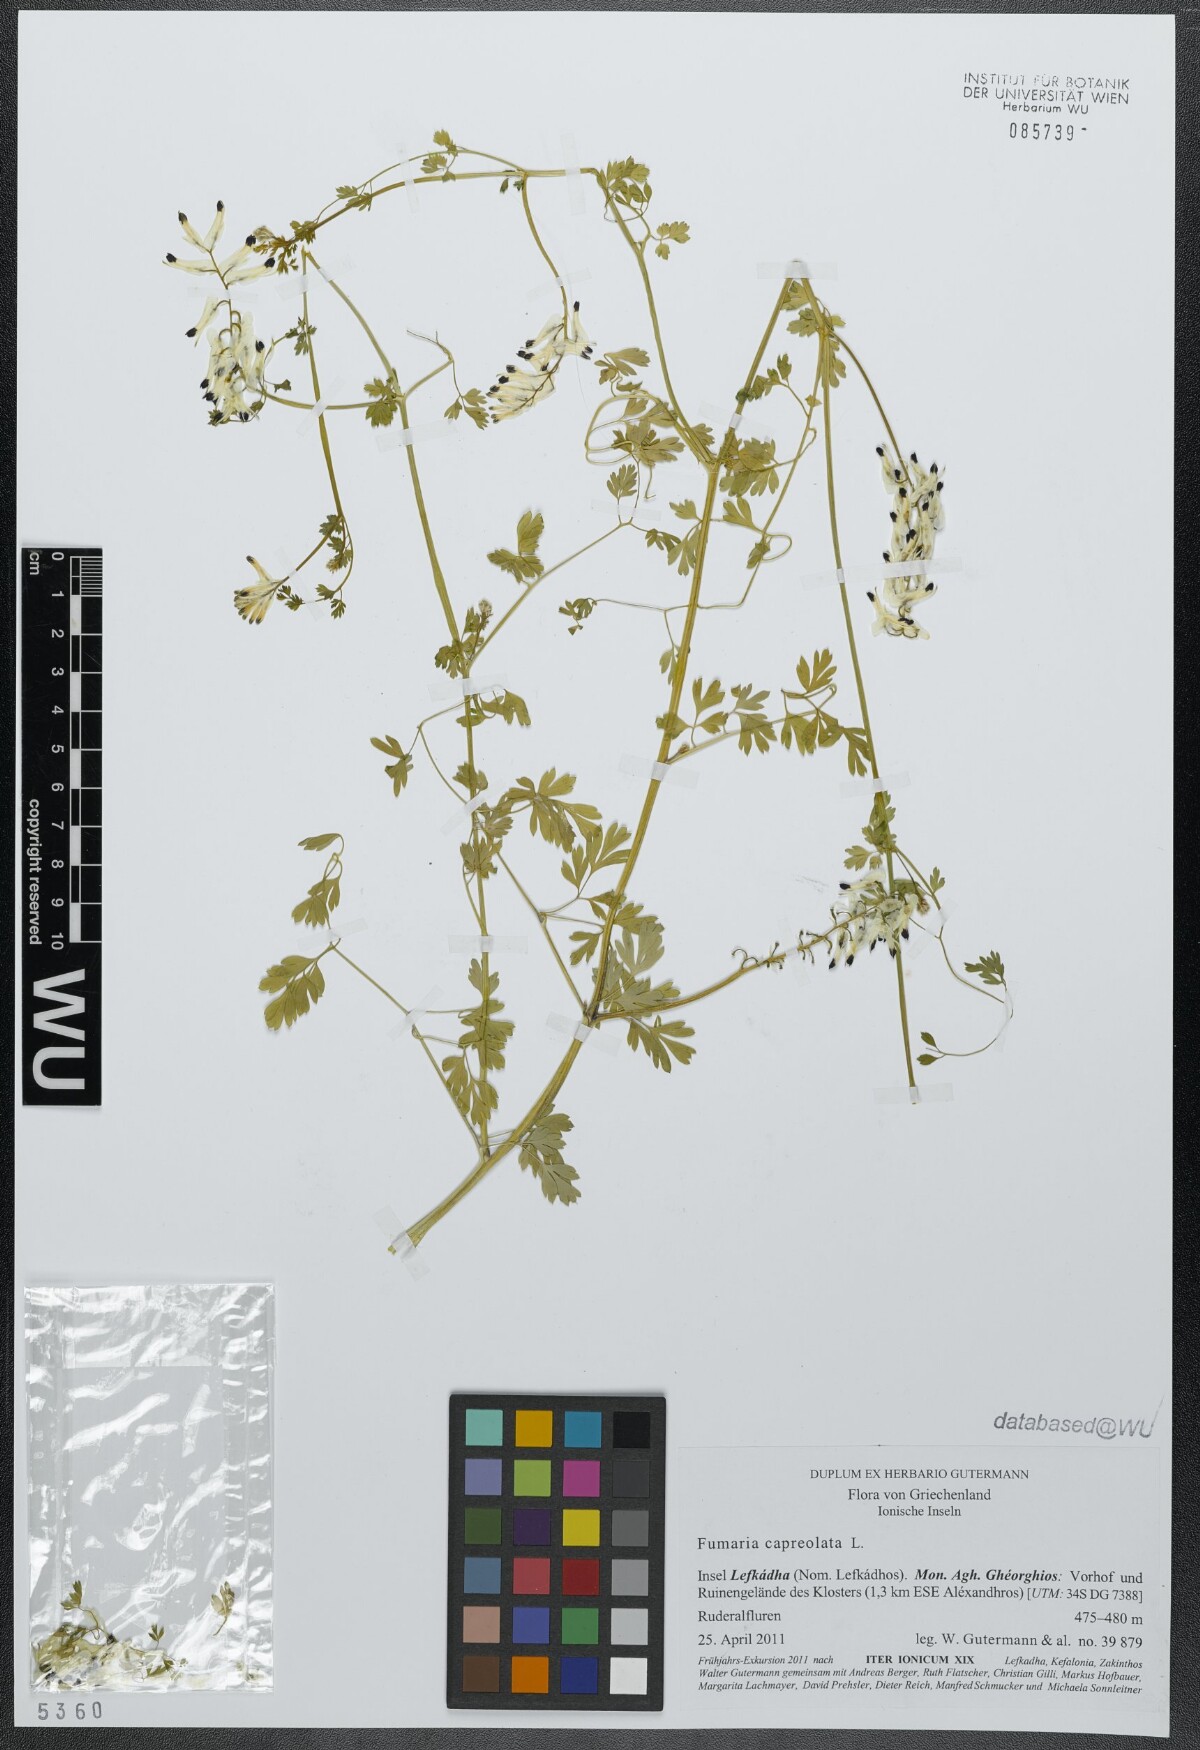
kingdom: Plantae
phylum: Tracheophyta
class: Magnoliopsida
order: Ranunculales
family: Papaveraceae
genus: Fumaria
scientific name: Fumaria capreolata
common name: White ramping-fumitory
